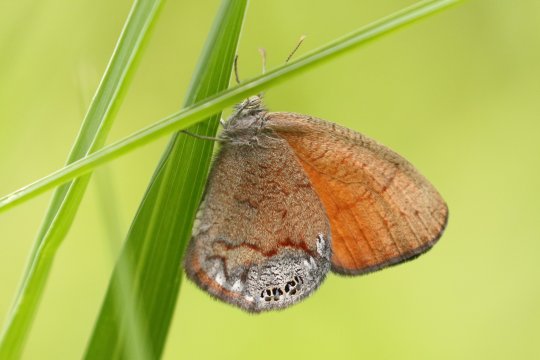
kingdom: Animalia
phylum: Arthropoda
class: Insecta
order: Lepidoptera
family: Nymphalidae
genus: Euptychia
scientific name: Euptychia Cyllopsis pertepida
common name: Canyonland Satyr
